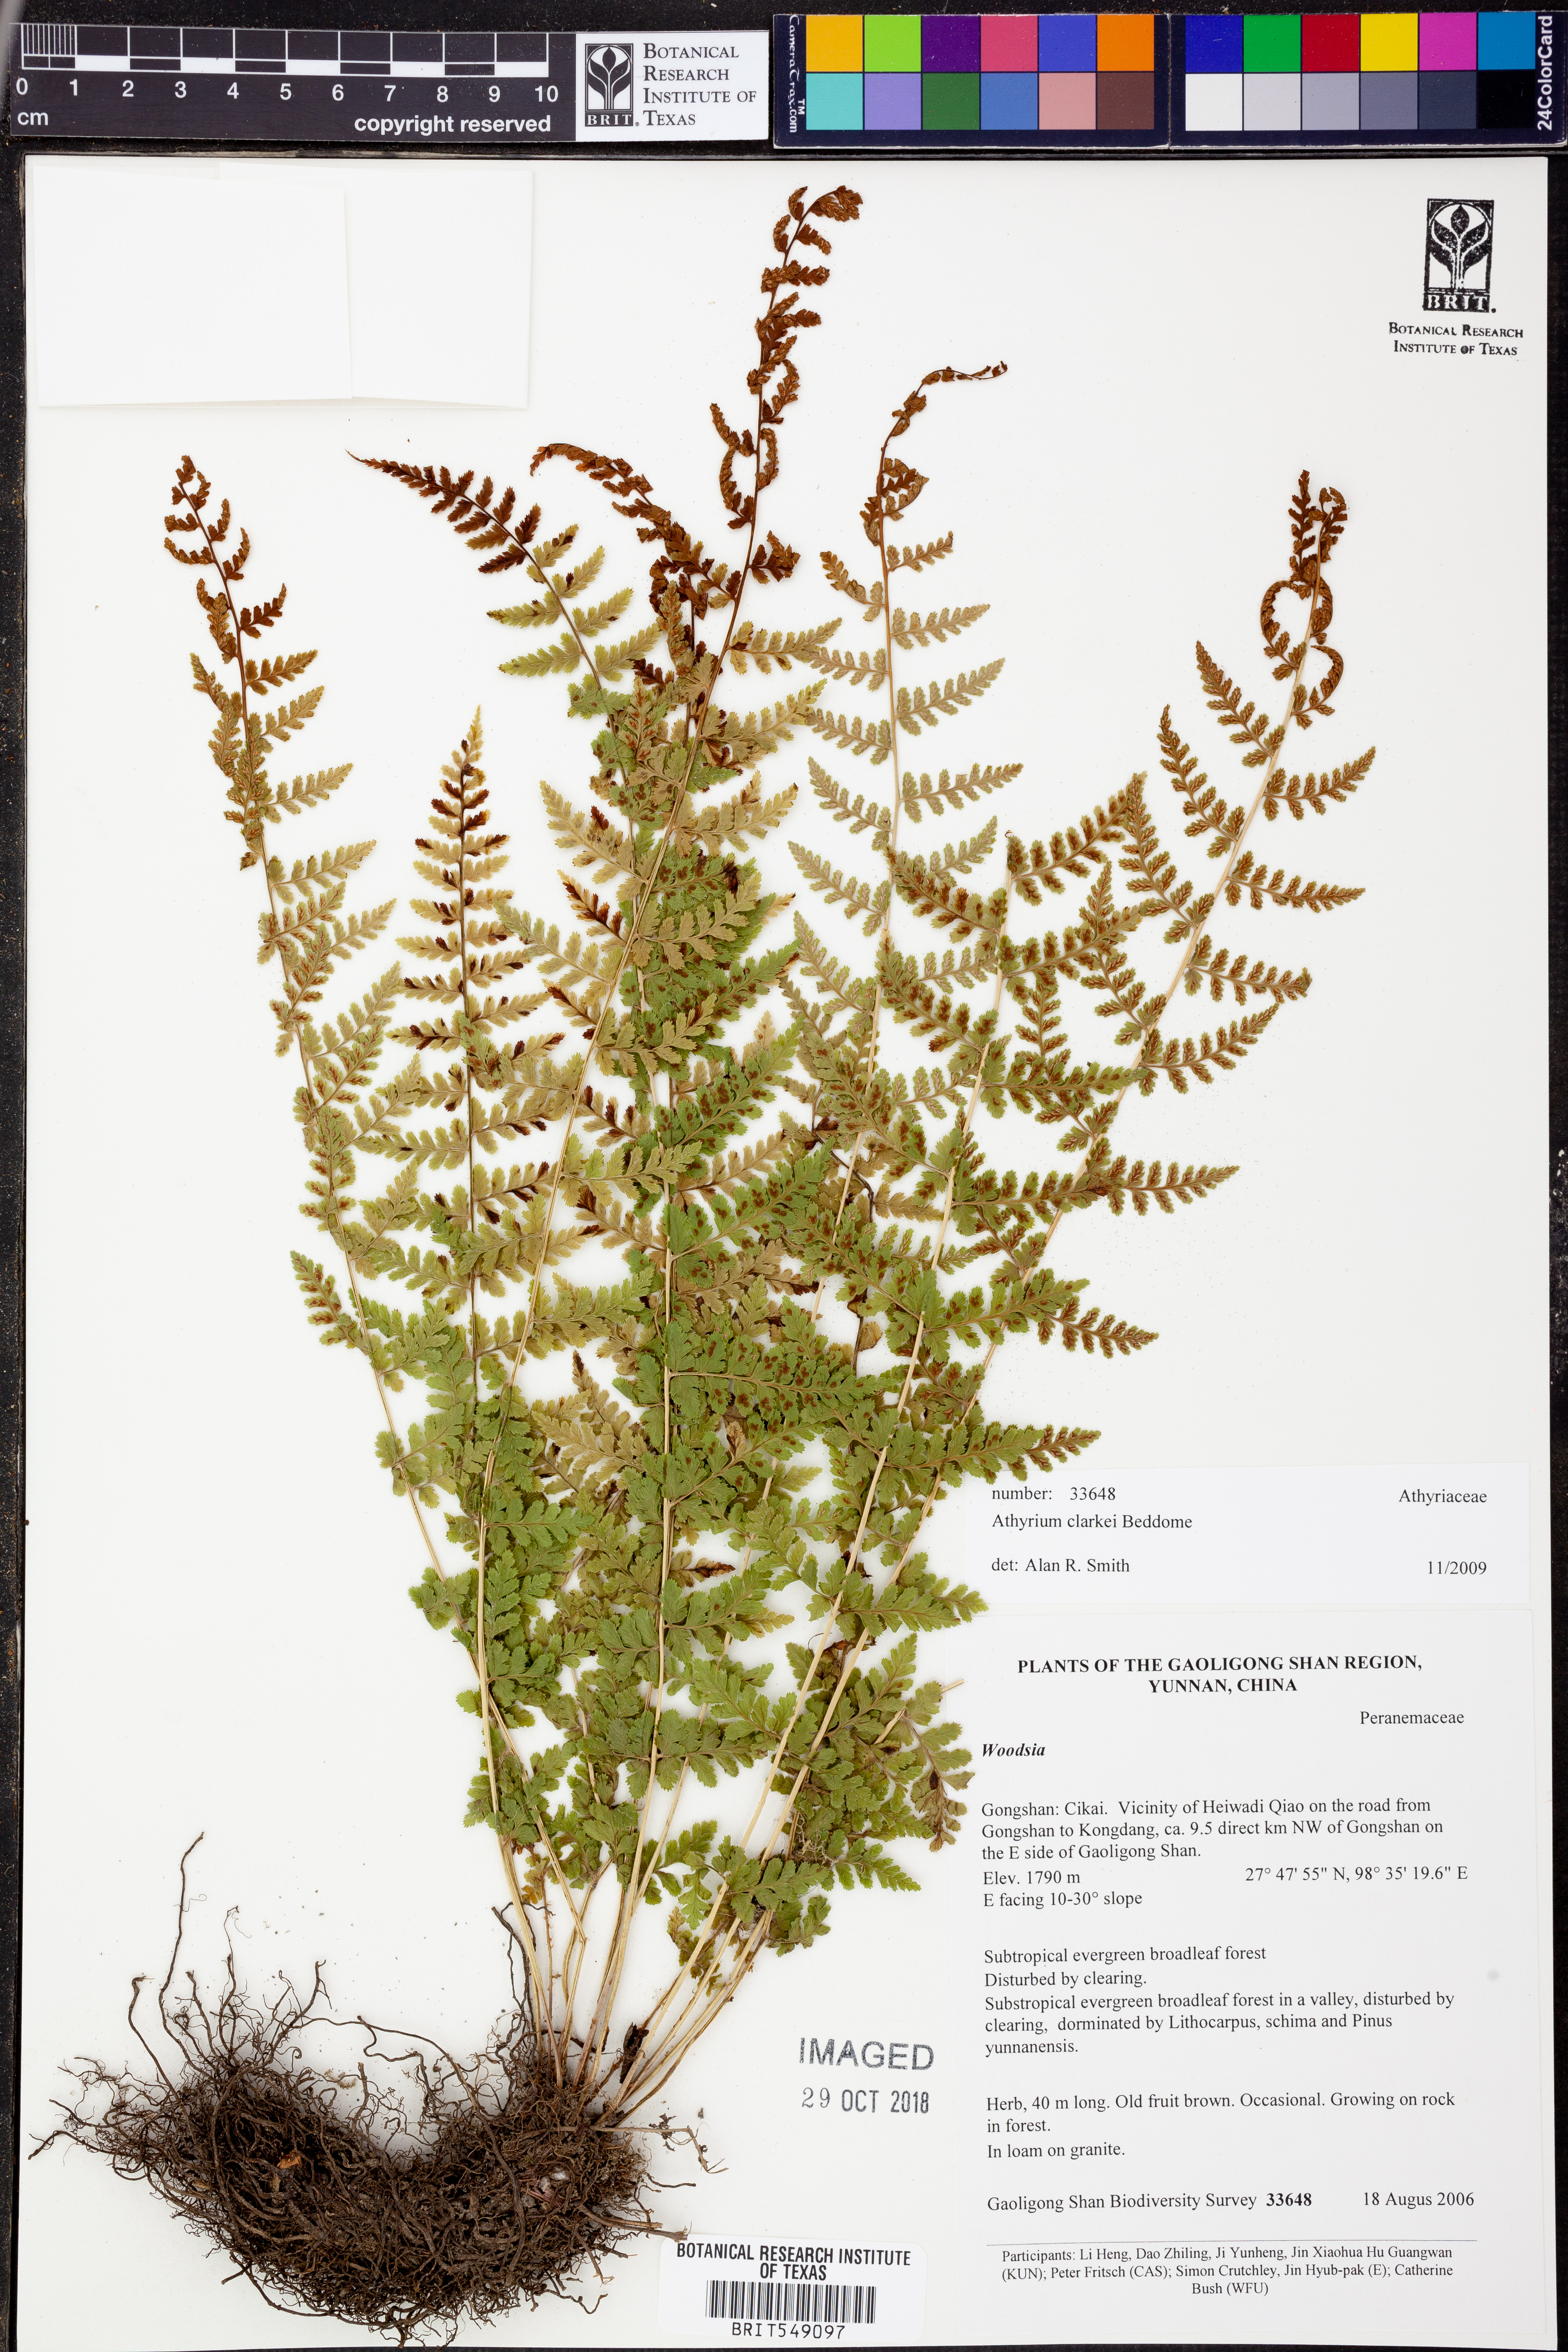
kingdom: Plantae
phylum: Tracheophyta
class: Polypodiopsida
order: Polypodiales
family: Athyriaceae
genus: Athyrium
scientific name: Athyrium clarkei
